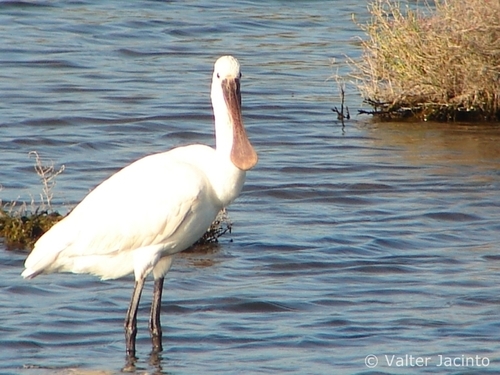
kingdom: Animalia
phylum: Chordata
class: Aves
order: Pelecaniformes
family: Threskiornithidae
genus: Platalea
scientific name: Platalea leucorodia
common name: Eurasian spoonbill
